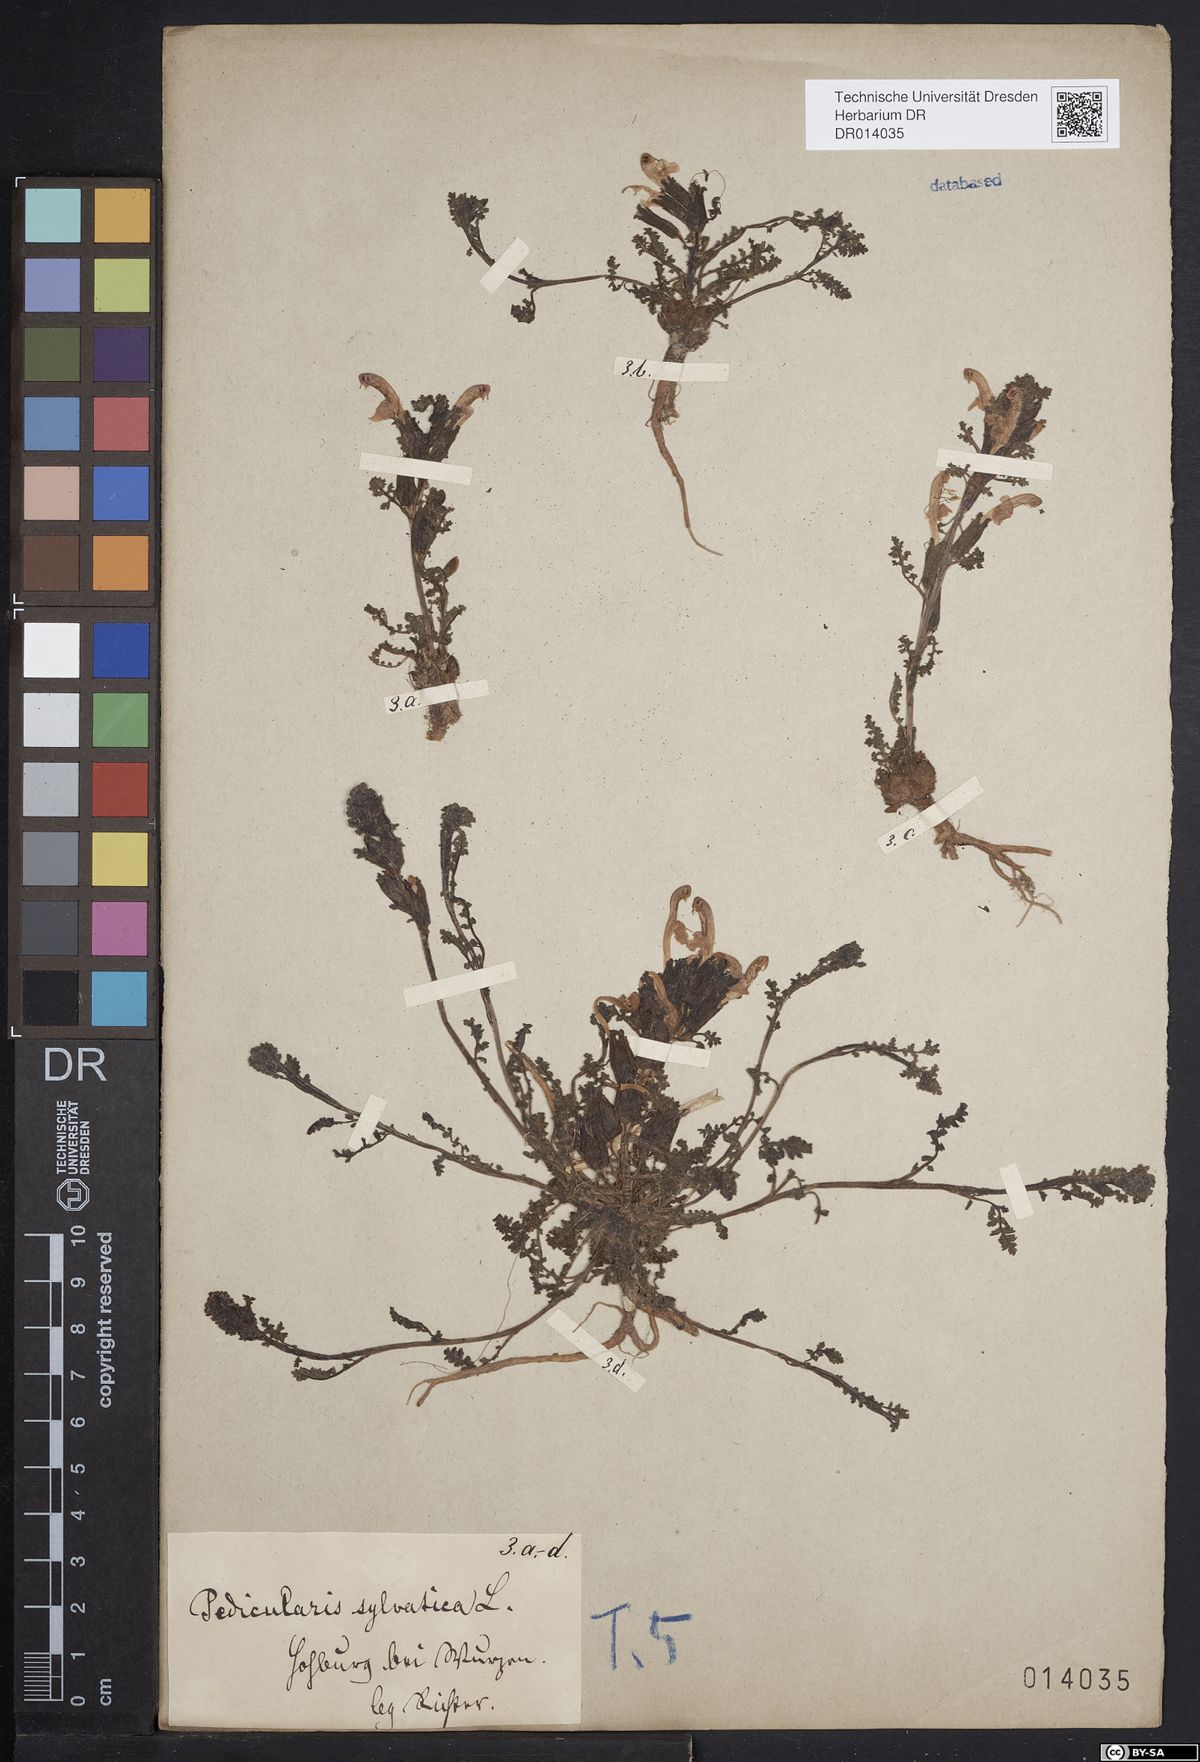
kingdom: Plantae
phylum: Tracheophyta
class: Magnoliopsida
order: Lamiales
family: Orobanchaceae
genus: Pedicularis
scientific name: Pedicularis sylvatica
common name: Lousewort
